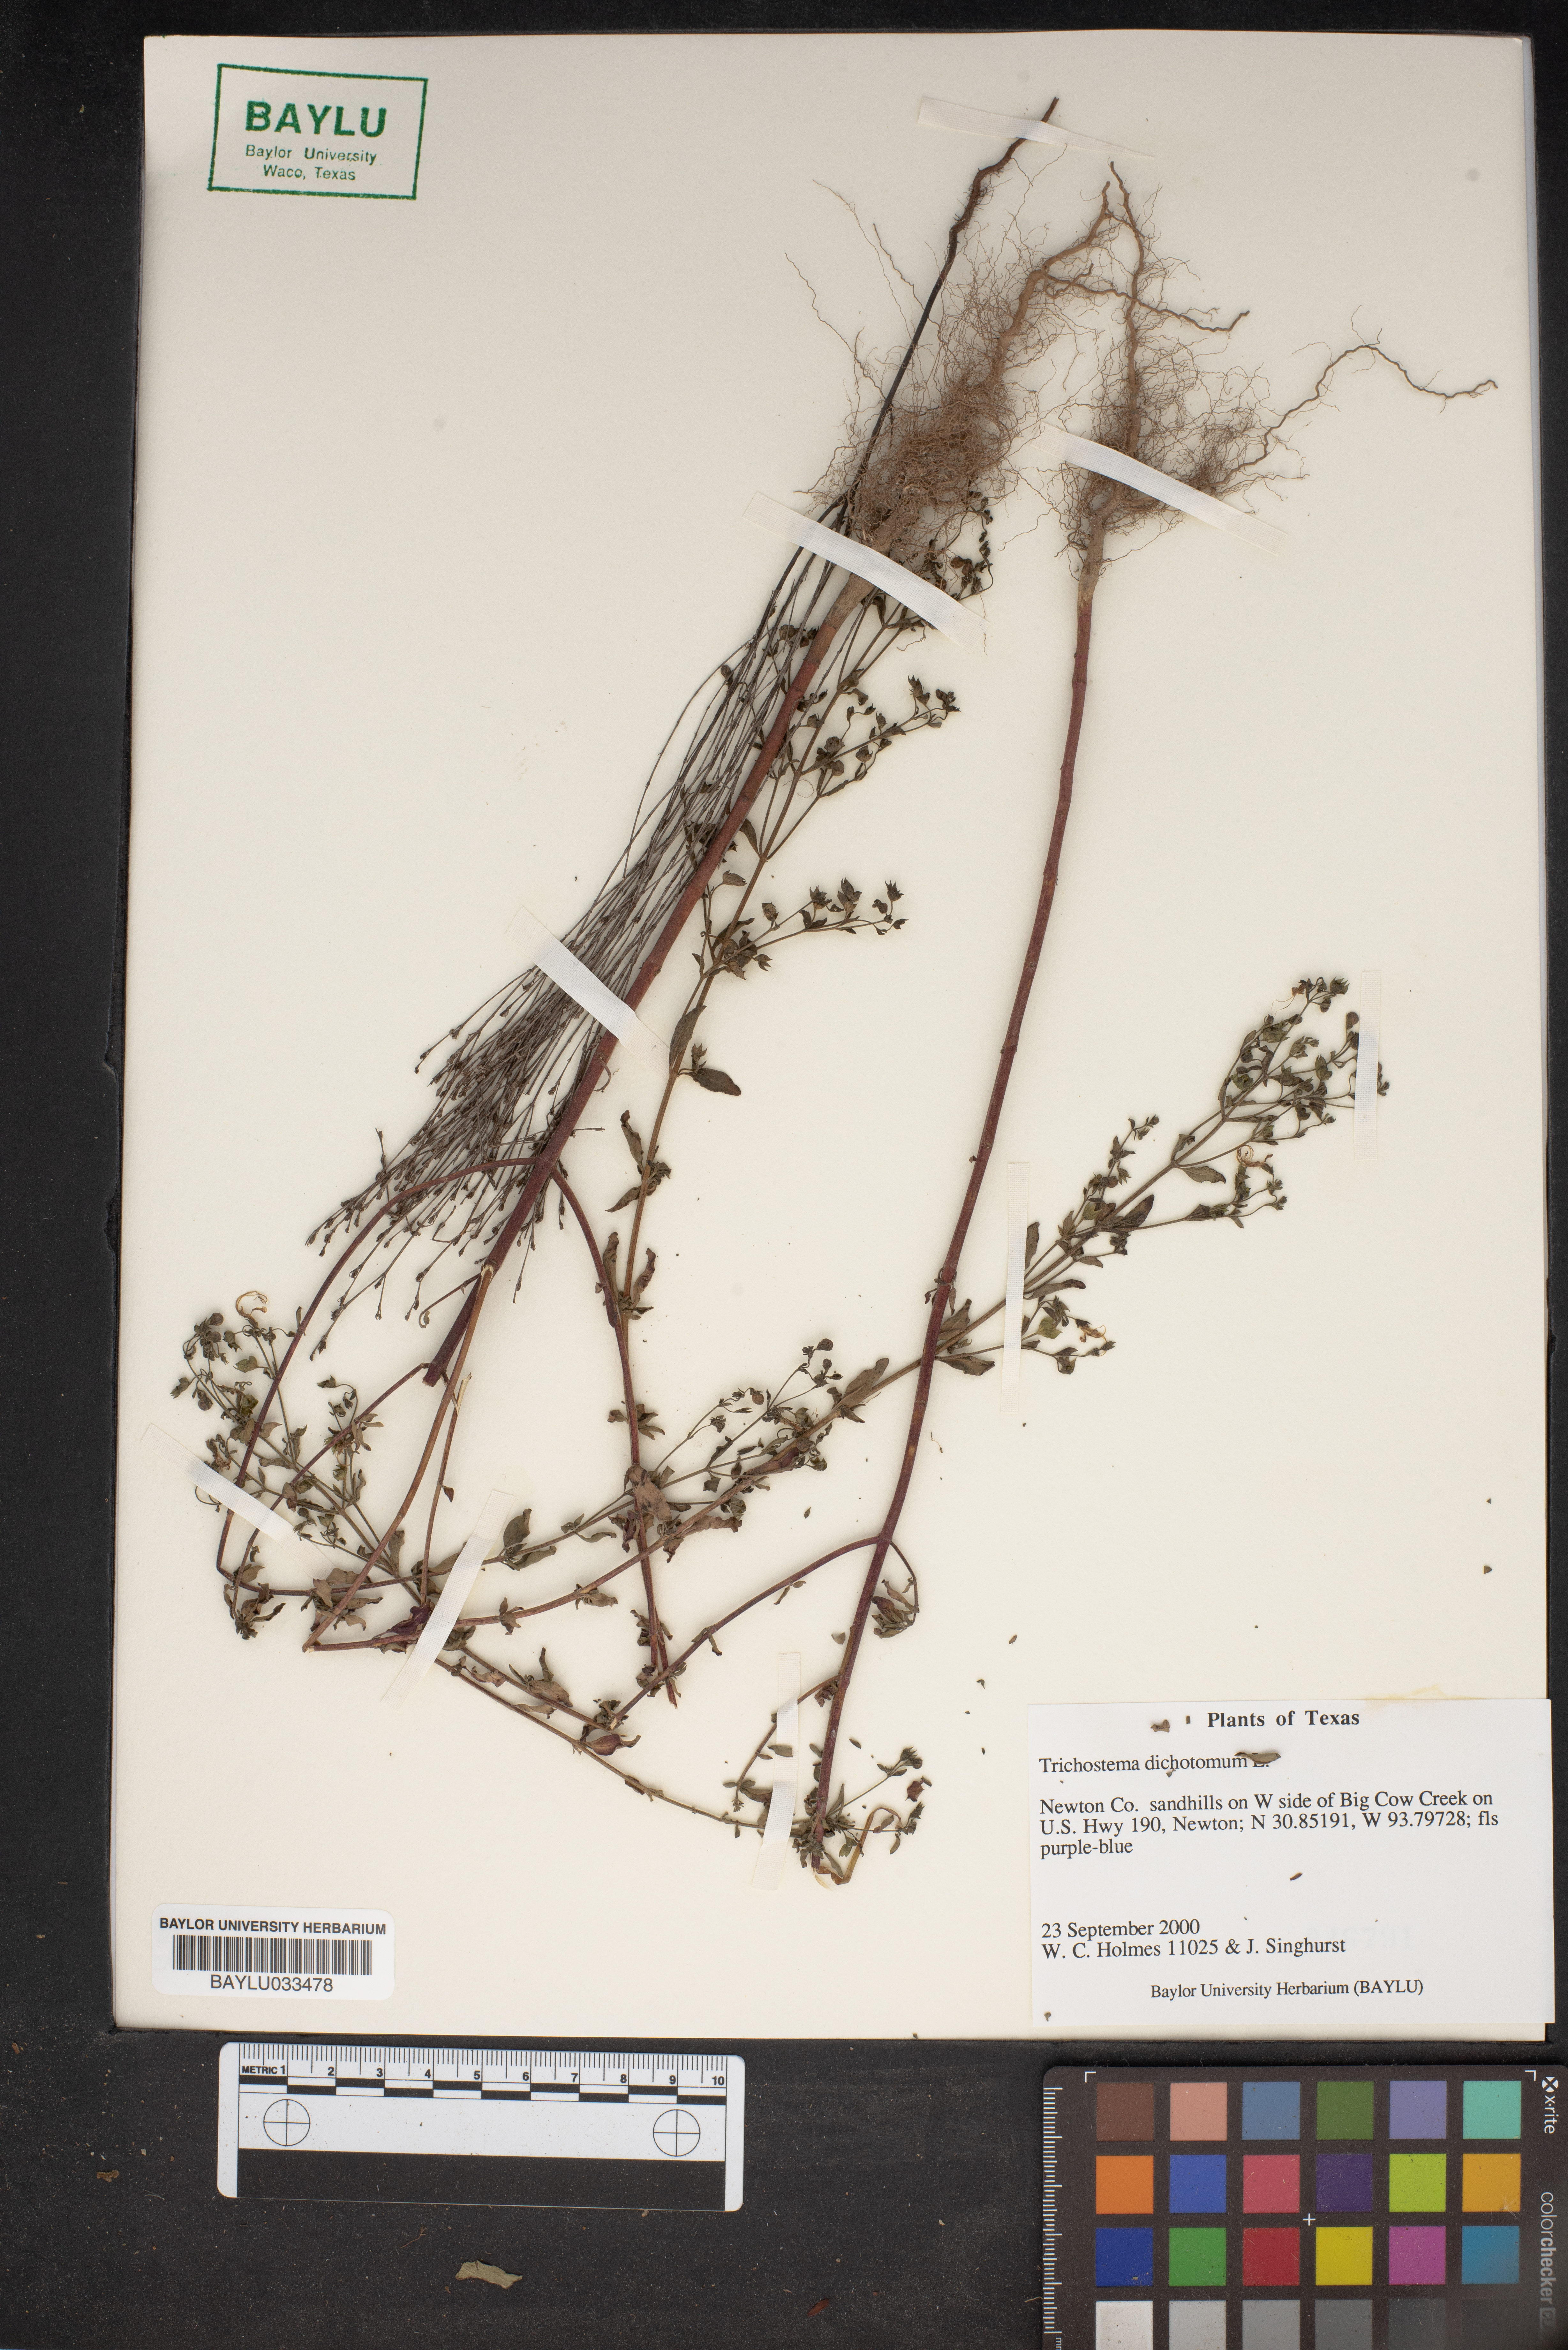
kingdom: Plantae
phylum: Tracheophyta
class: Magnoliopsida
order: Lamiales
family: Lamiaceae
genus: Trichostema
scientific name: Trichostema dichotomum
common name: Bastard pennyroyal
